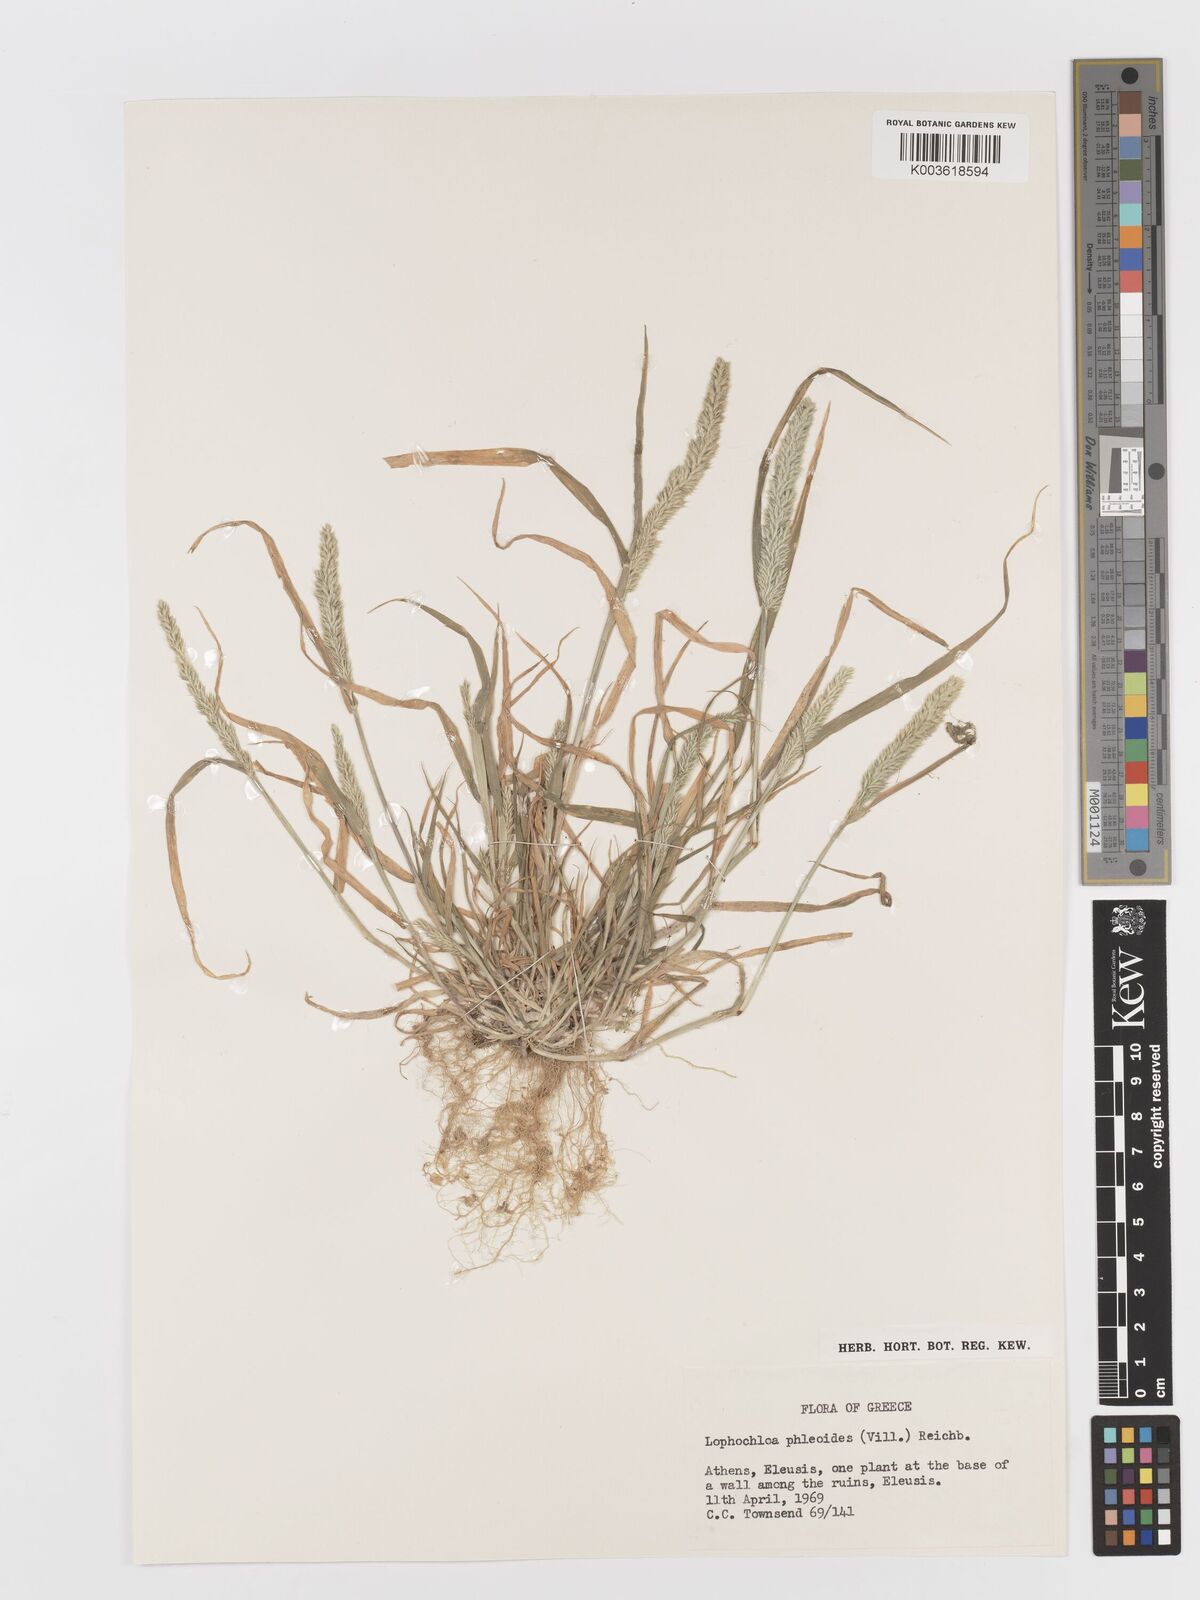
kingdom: Plantae
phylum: Tracheophyta
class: Liliopsida
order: Poales
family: Poaceae
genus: Rostraria
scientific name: Rostraria cristata
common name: Mediterranean hair-grass
